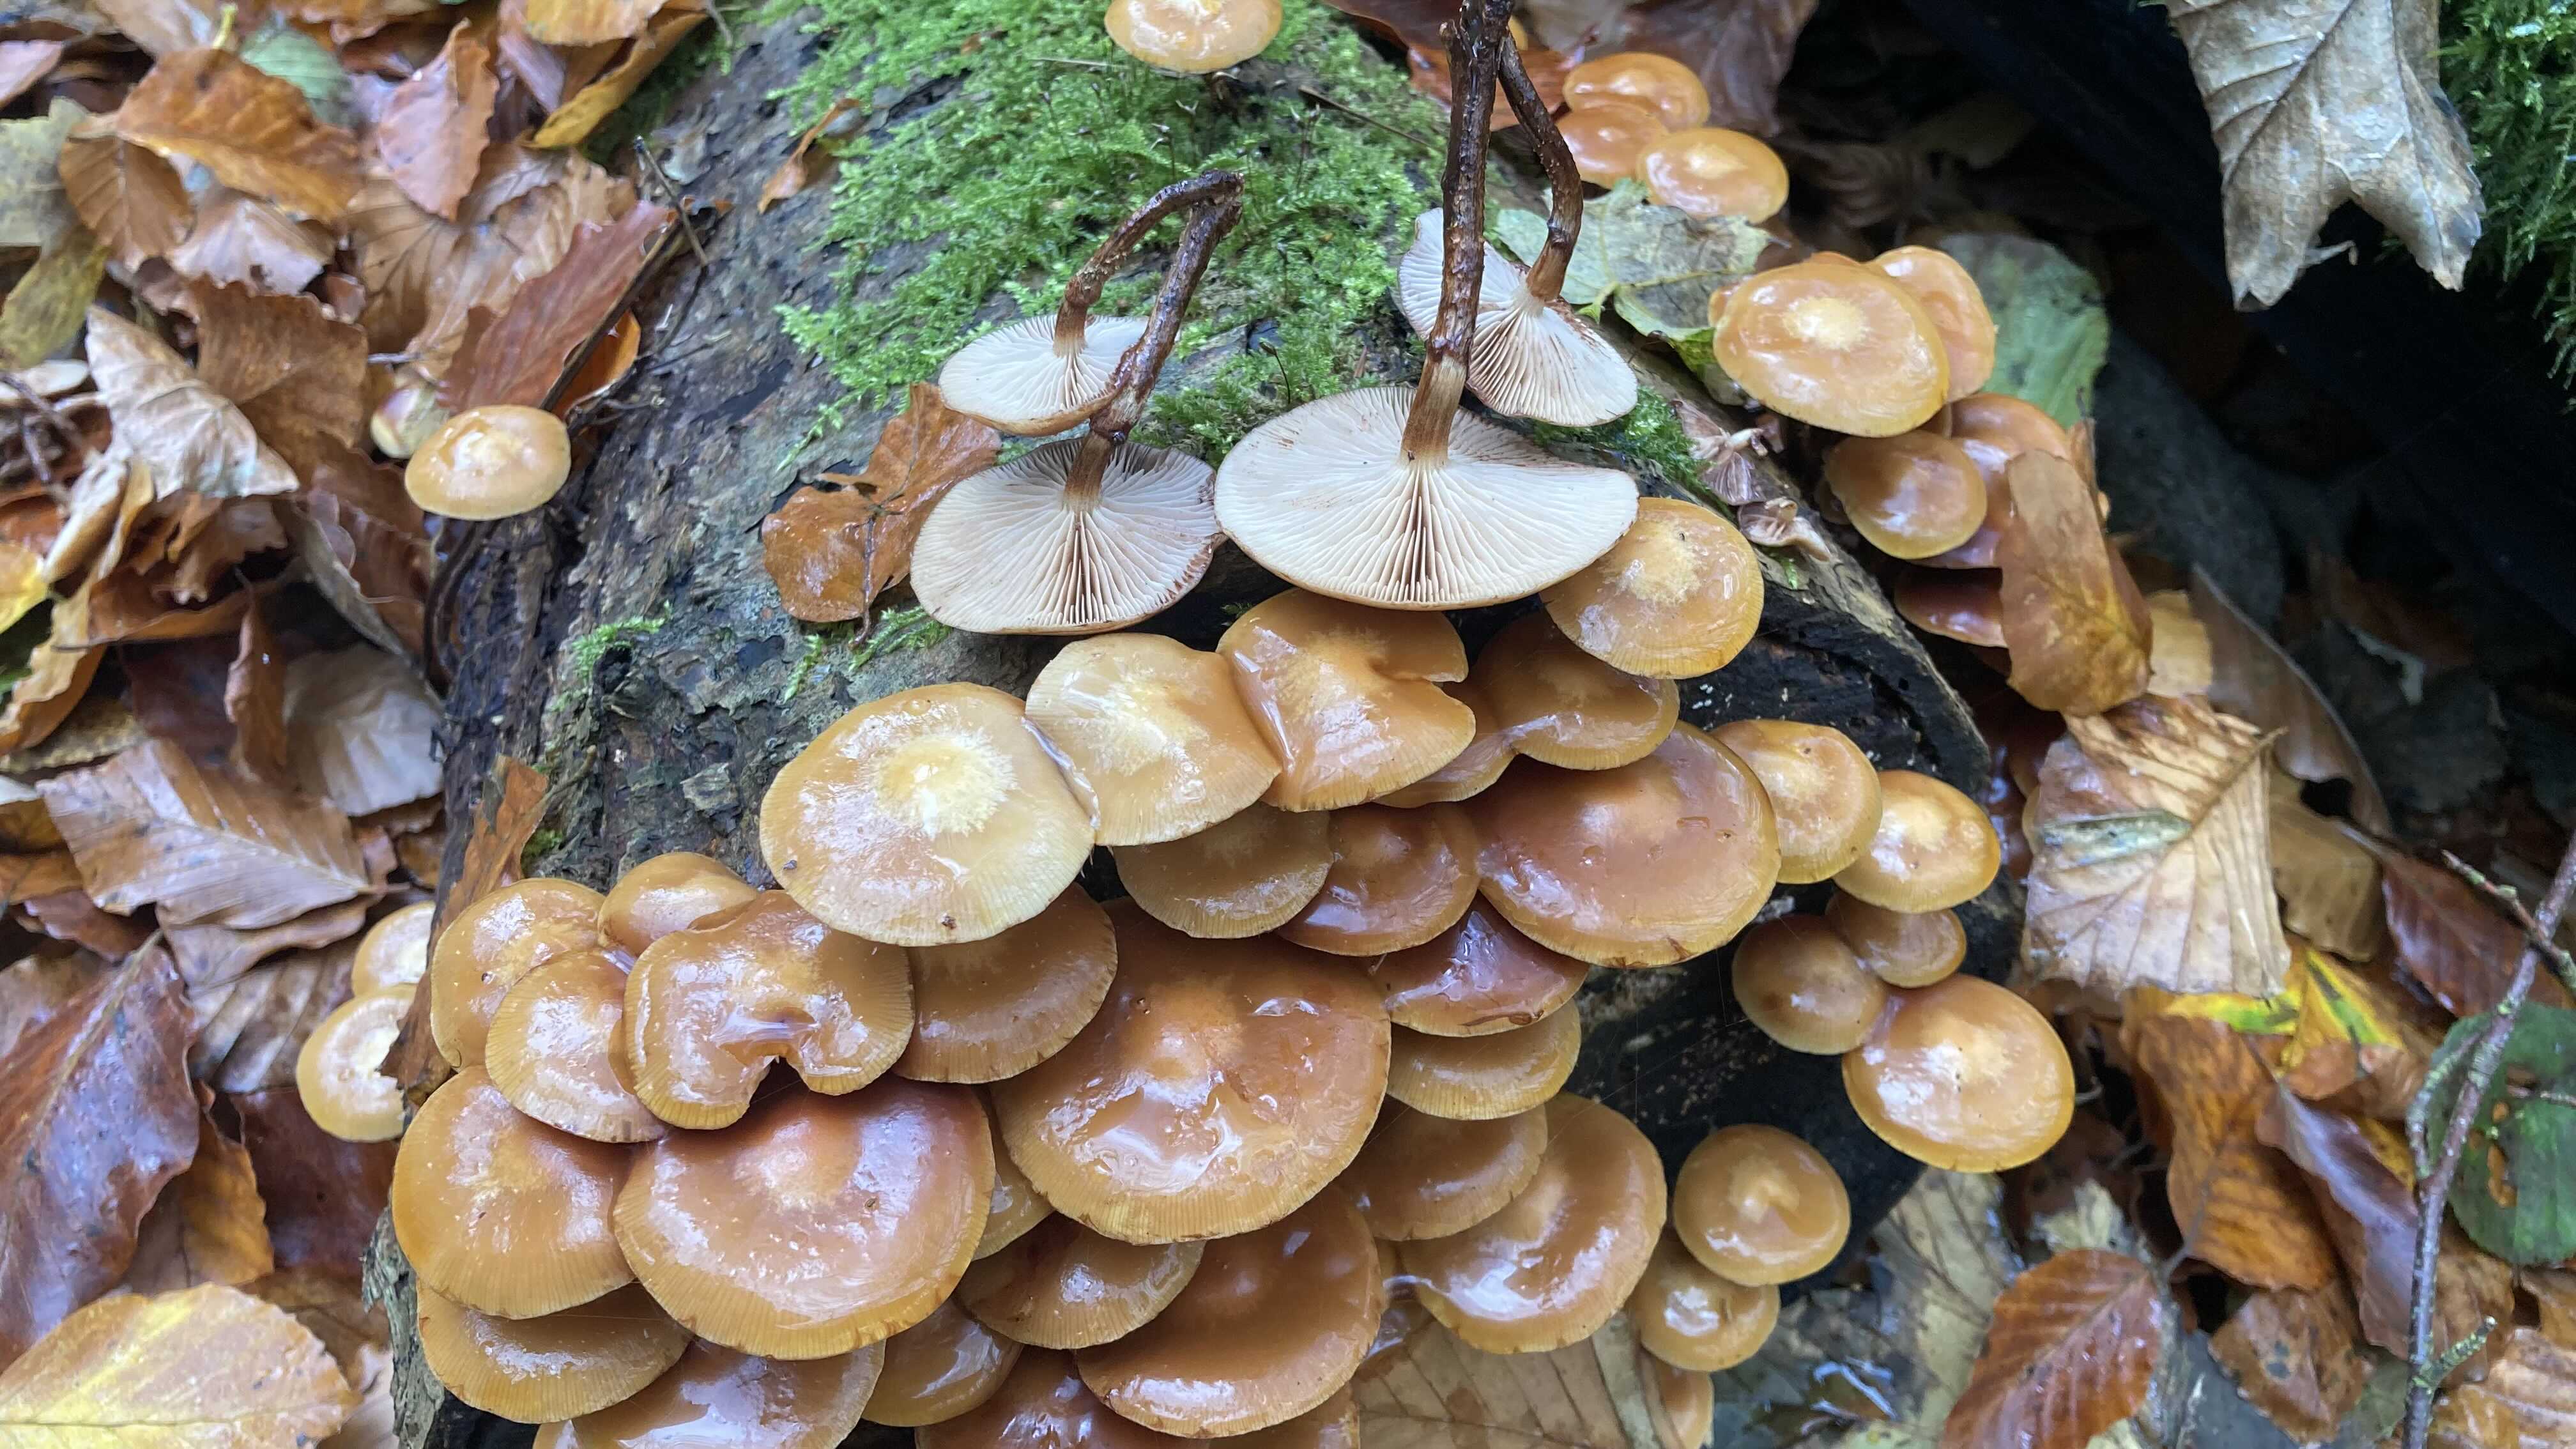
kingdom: Fungi
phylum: Basidiomycota
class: Agaricomycetes
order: Agaricales
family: Strophariaceae
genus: Kuehneromyces
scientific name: Kuehneromyces mutabilis
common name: foranderlig skælhat
